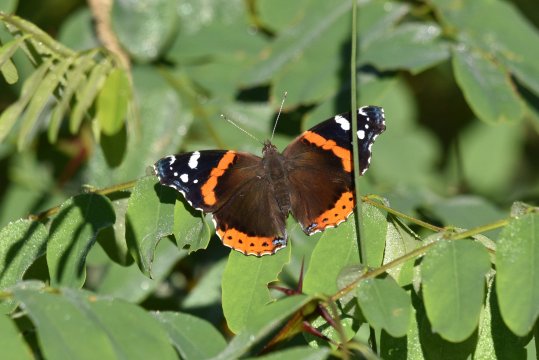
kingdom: Animalia
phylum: Arthropoda
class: Insecta
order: Lepidoptera
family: Nymphalidae
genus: Vanessa
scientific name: Vanessa atalanta
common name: Red Admiral
